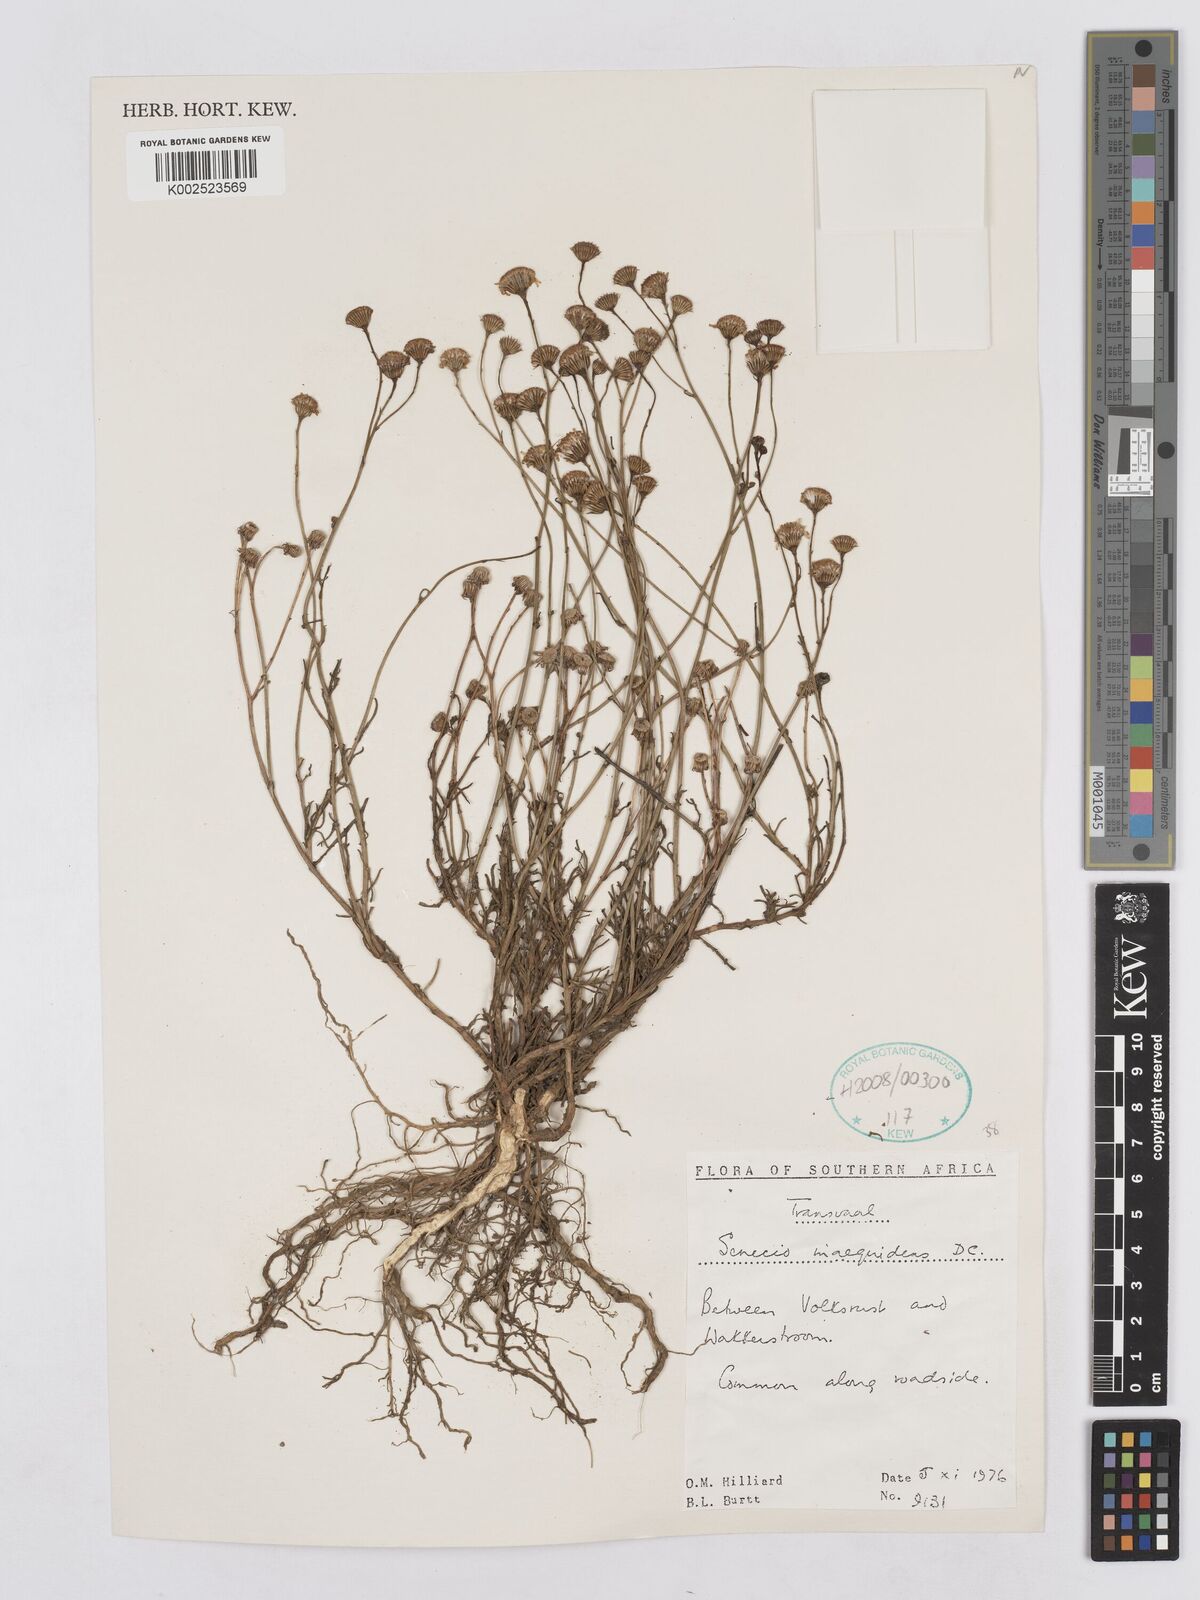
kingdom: Plantae
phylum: Tracheophyta
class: Magnoliopsida
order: Asterales
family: Asteraceae
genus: Senecio
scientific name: Senecio inaequidens
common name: Narrow-leaved ragwort
